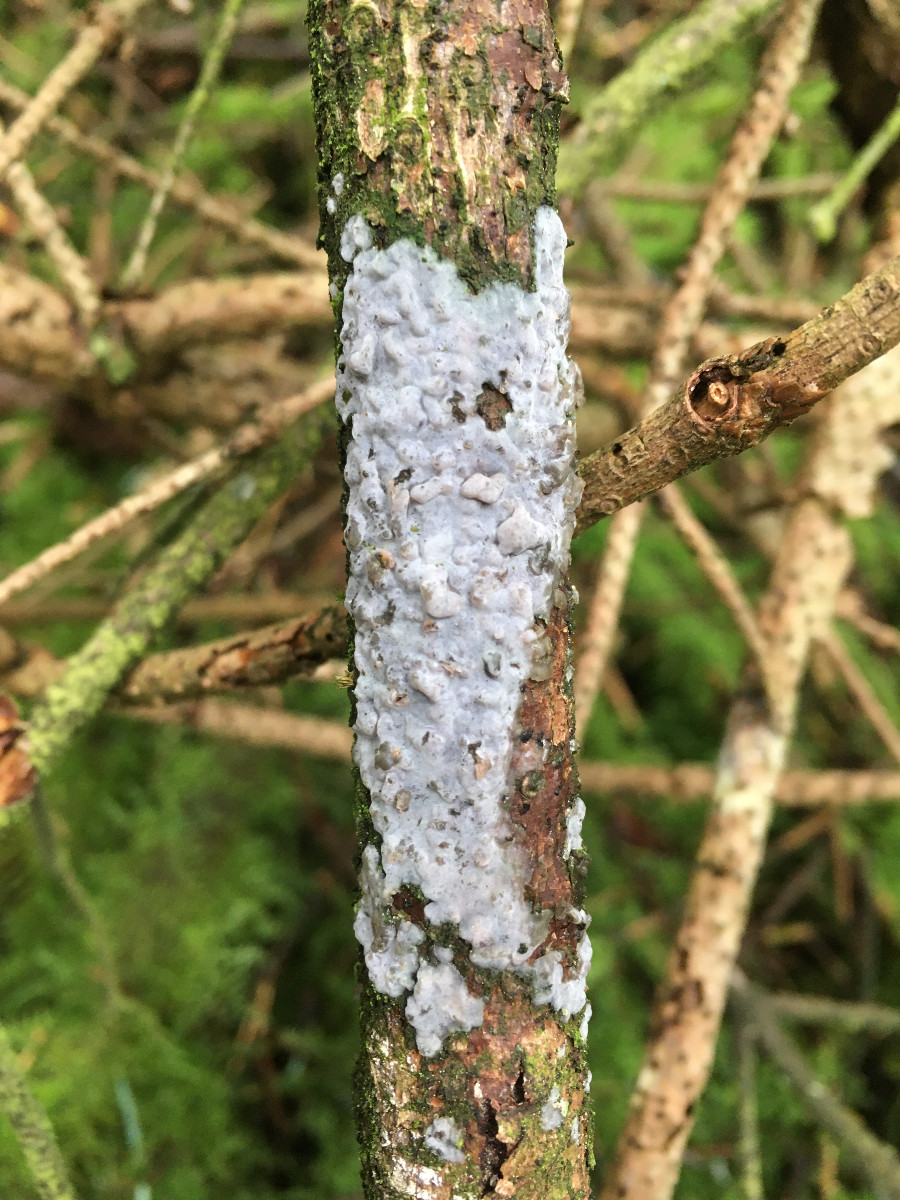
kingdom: Fungi
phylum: Basidiomycota
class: Agaricomycetes
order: Sebacinales
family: Sebacinaceae
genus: Sebacina
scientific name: Sebacina grisea
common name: blågrå bævrehinde
